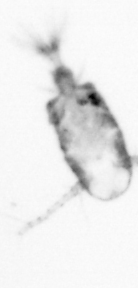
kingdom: Animalia
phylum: Arthropoda
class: Copepoda
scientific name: Copepoda
